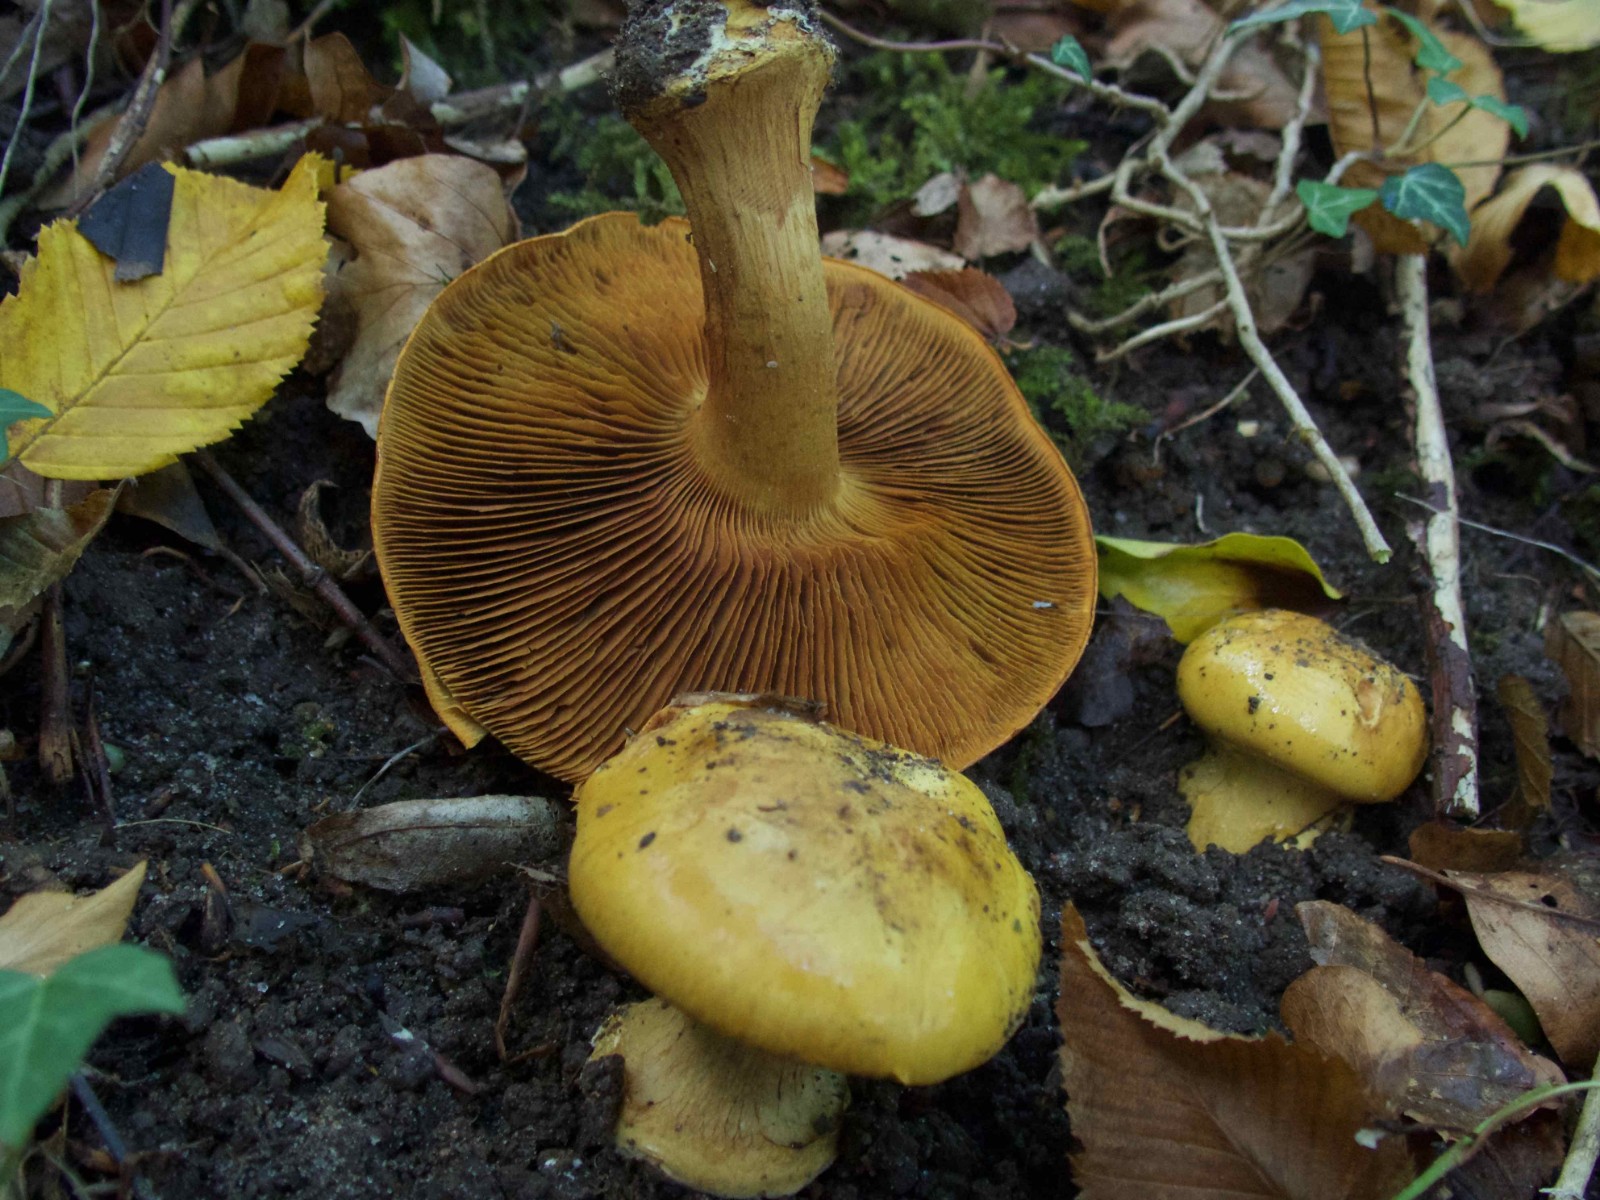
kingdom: Fungi
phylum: Basidiomycota
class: Agaricomycetes
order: Agaricales
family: Cortinariaceae
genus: Calonarius
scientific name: Calonarius olearioides
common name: safran-slørhat
